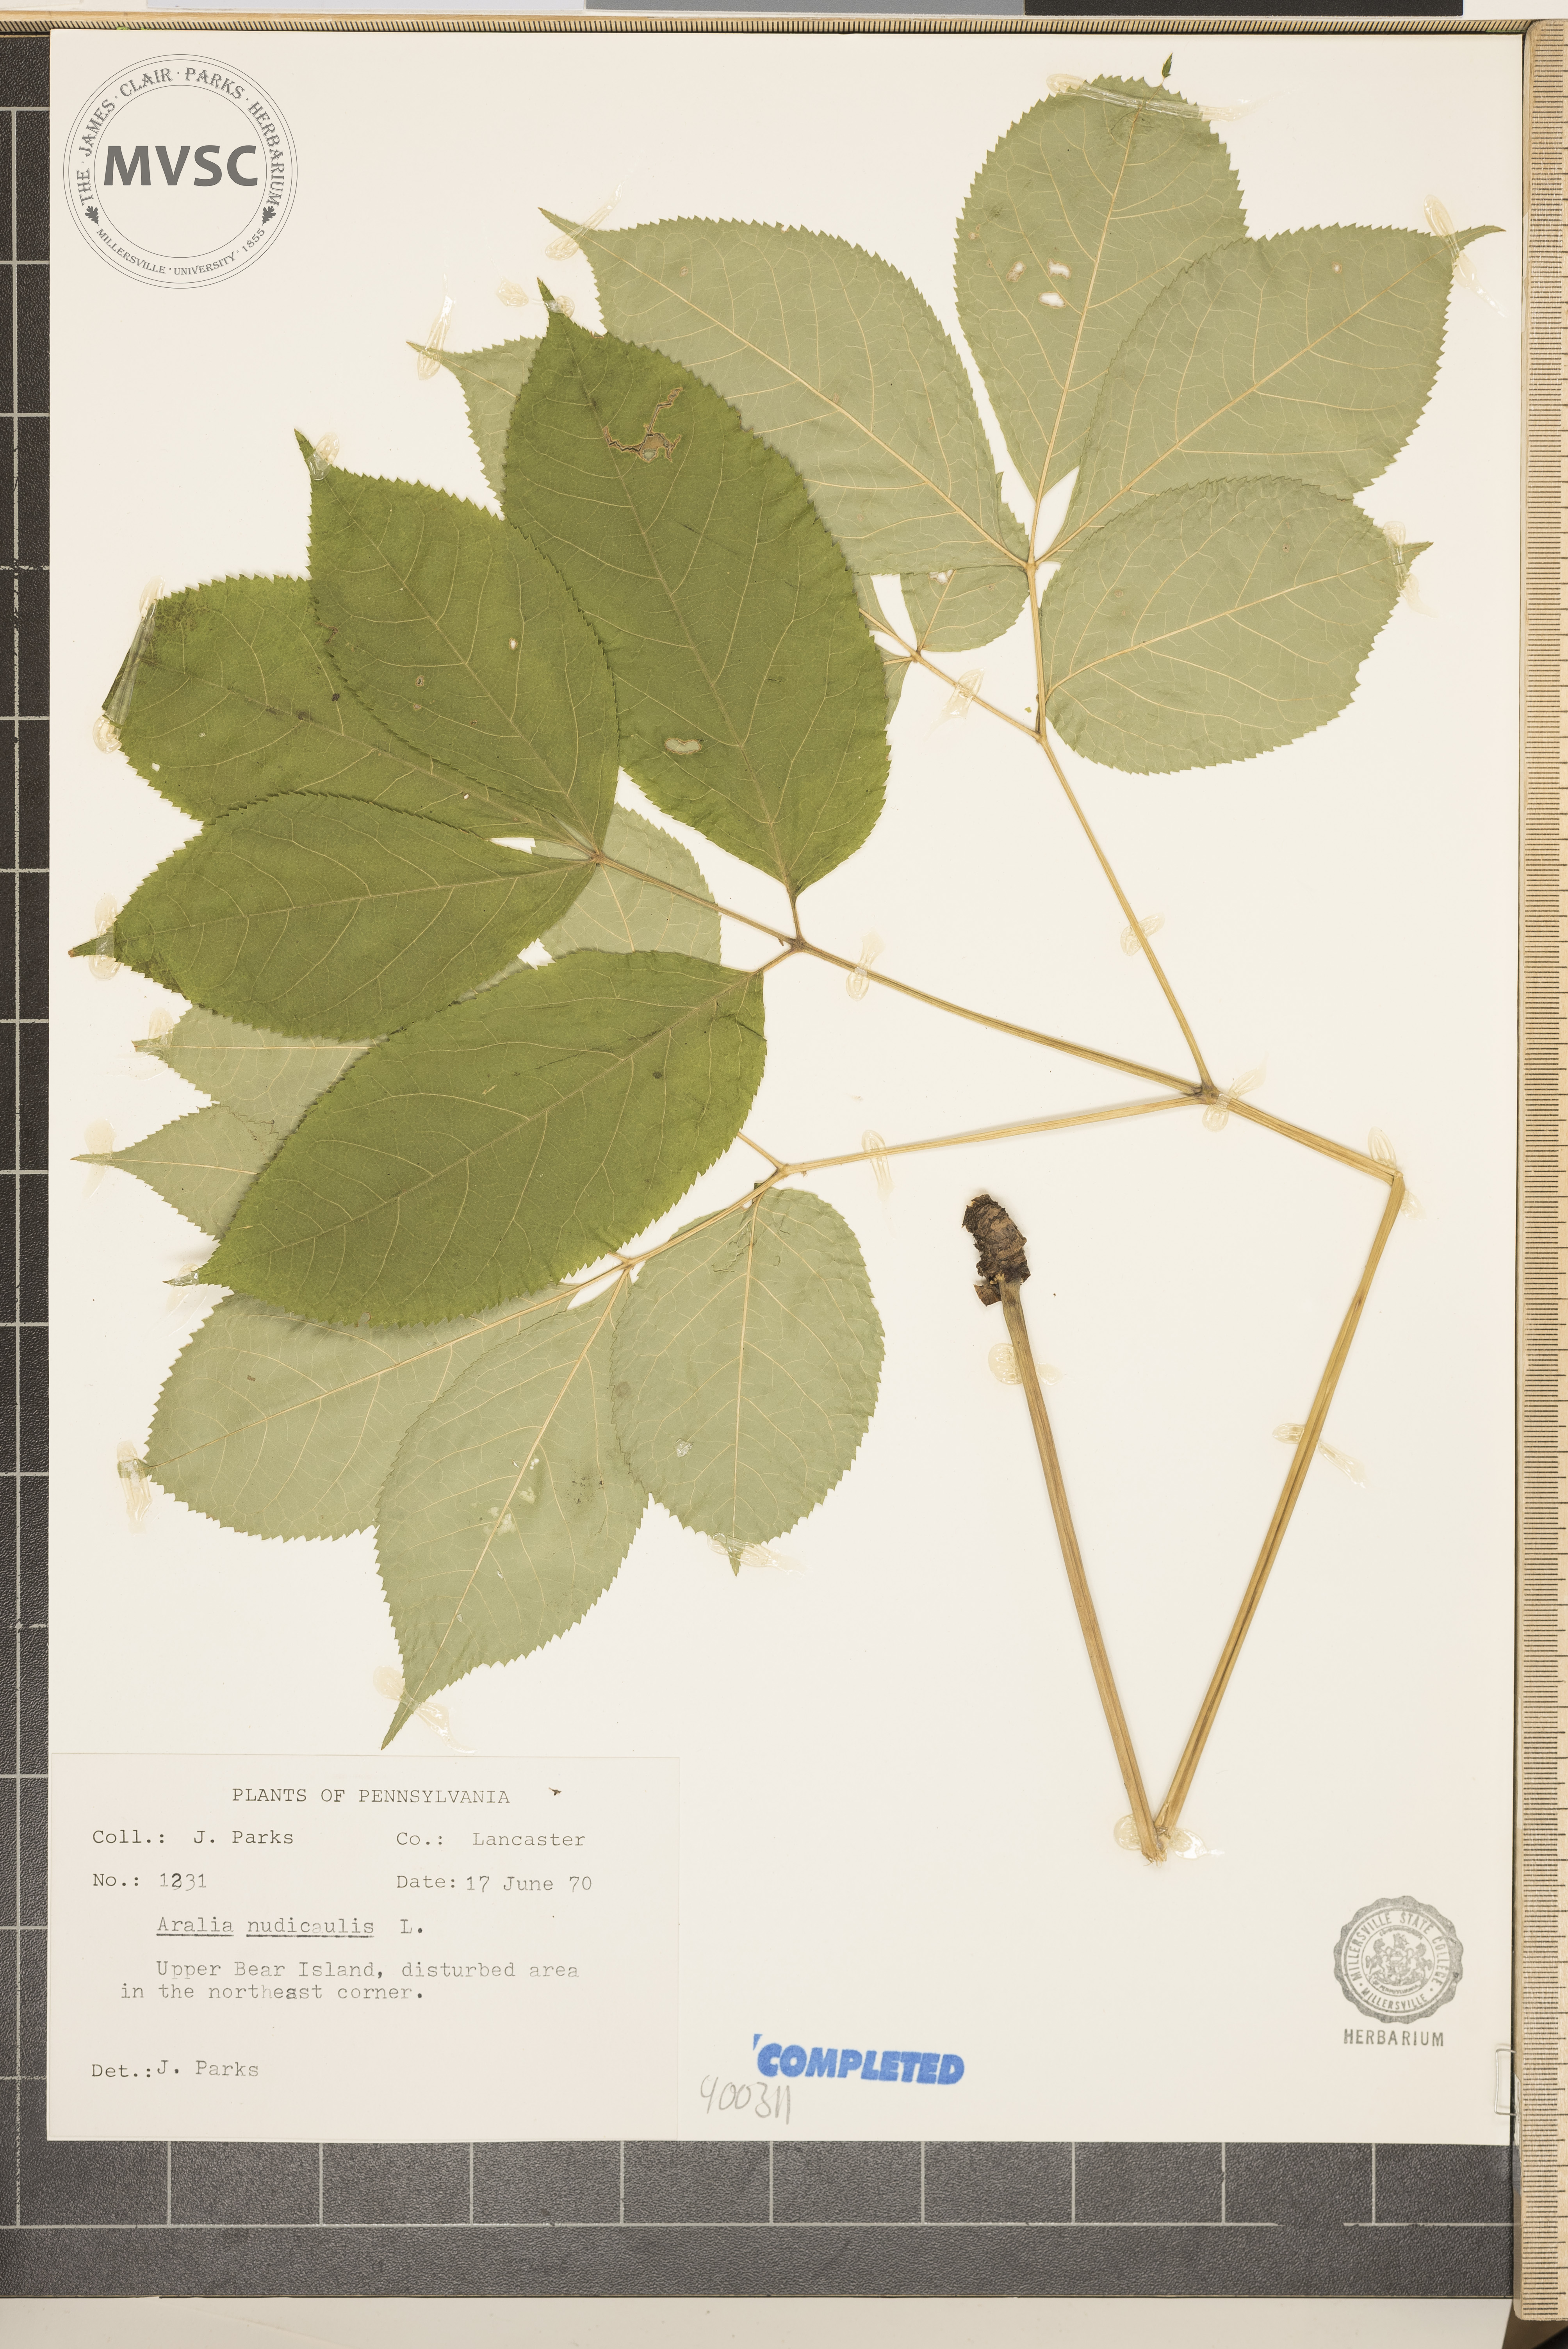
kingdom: Plantae
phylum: Tracheophyta
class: Magnoliopsida
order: Apiales
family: Araliaceae
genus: Aralia
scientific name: Aralia nudicaulis
